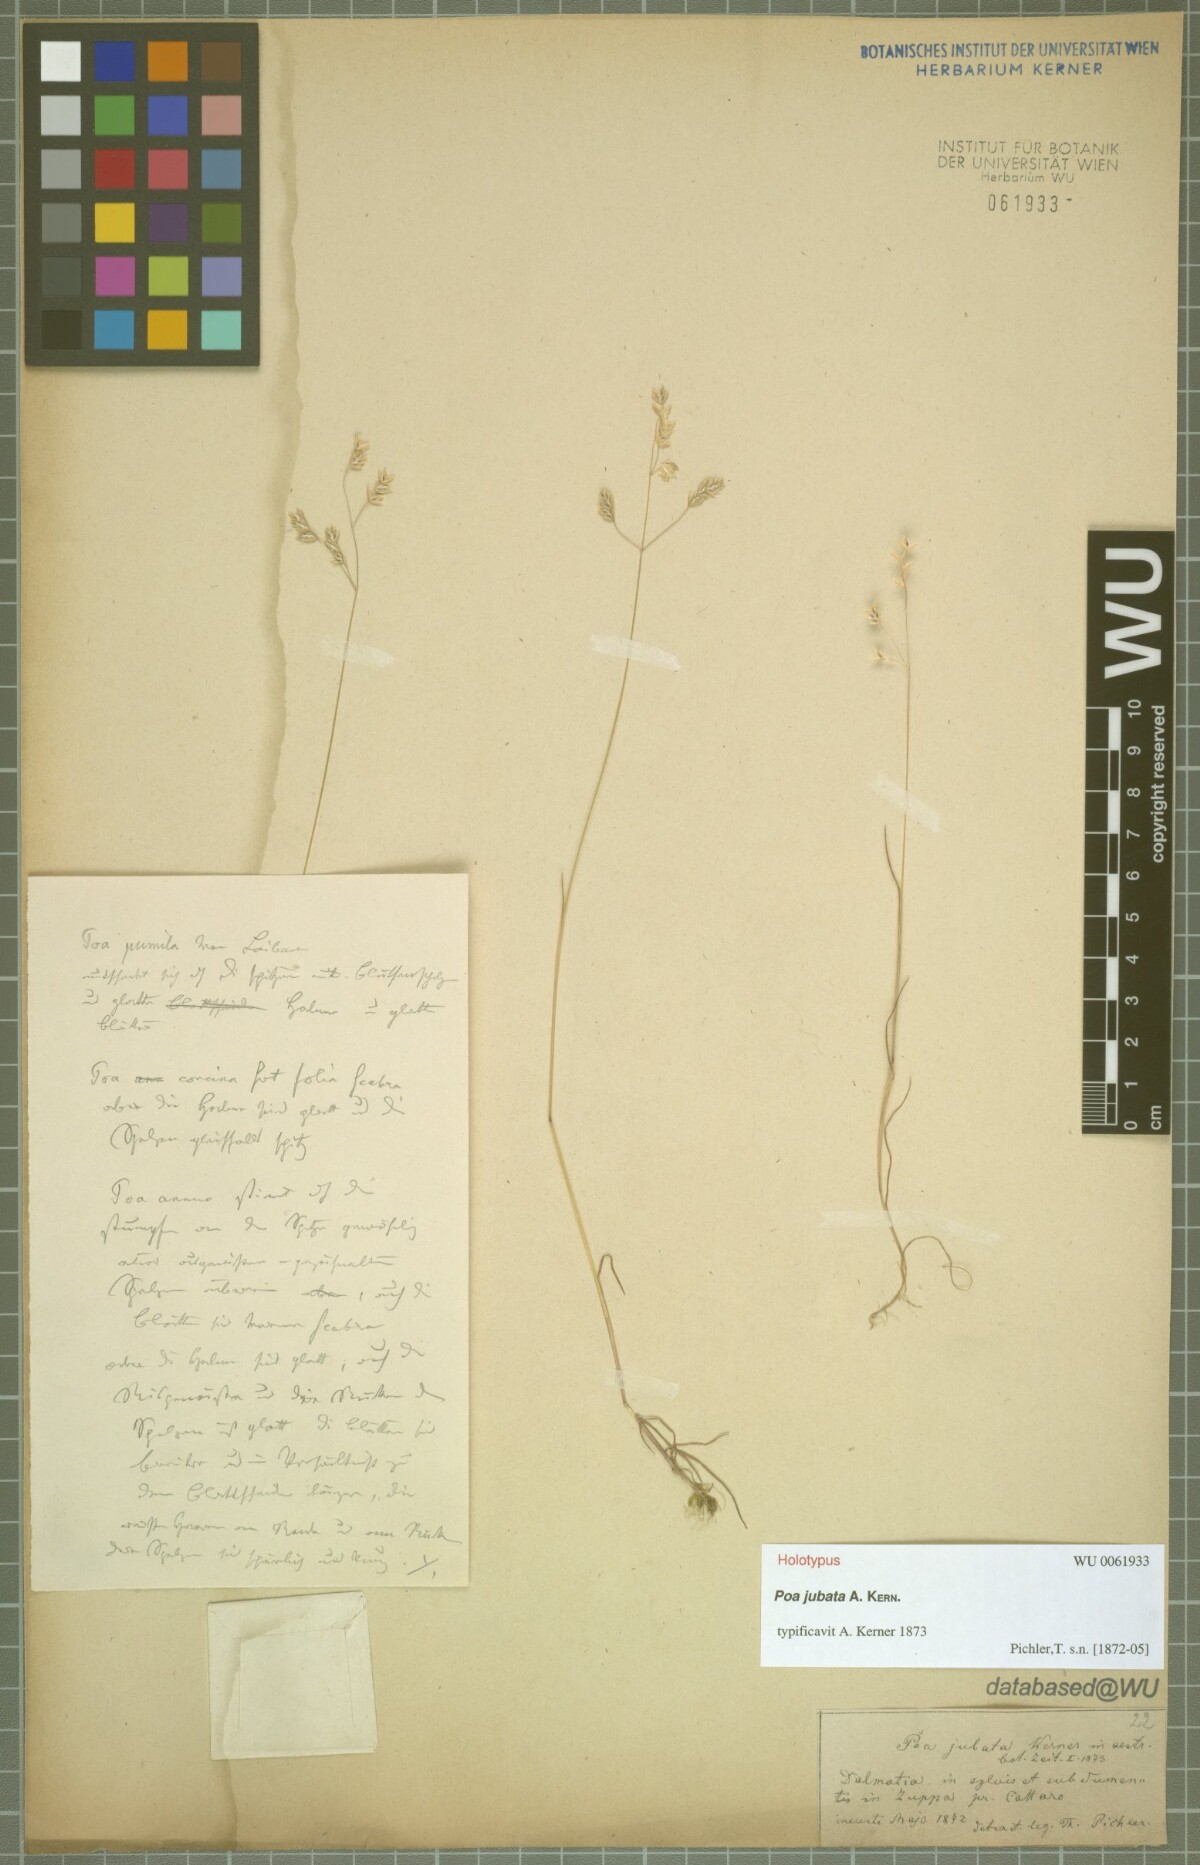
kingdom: Plantae
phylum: Tracheophyta
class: Liliopsida
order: Poales
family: Poaceae
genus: Poa
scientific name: Poa jubata
